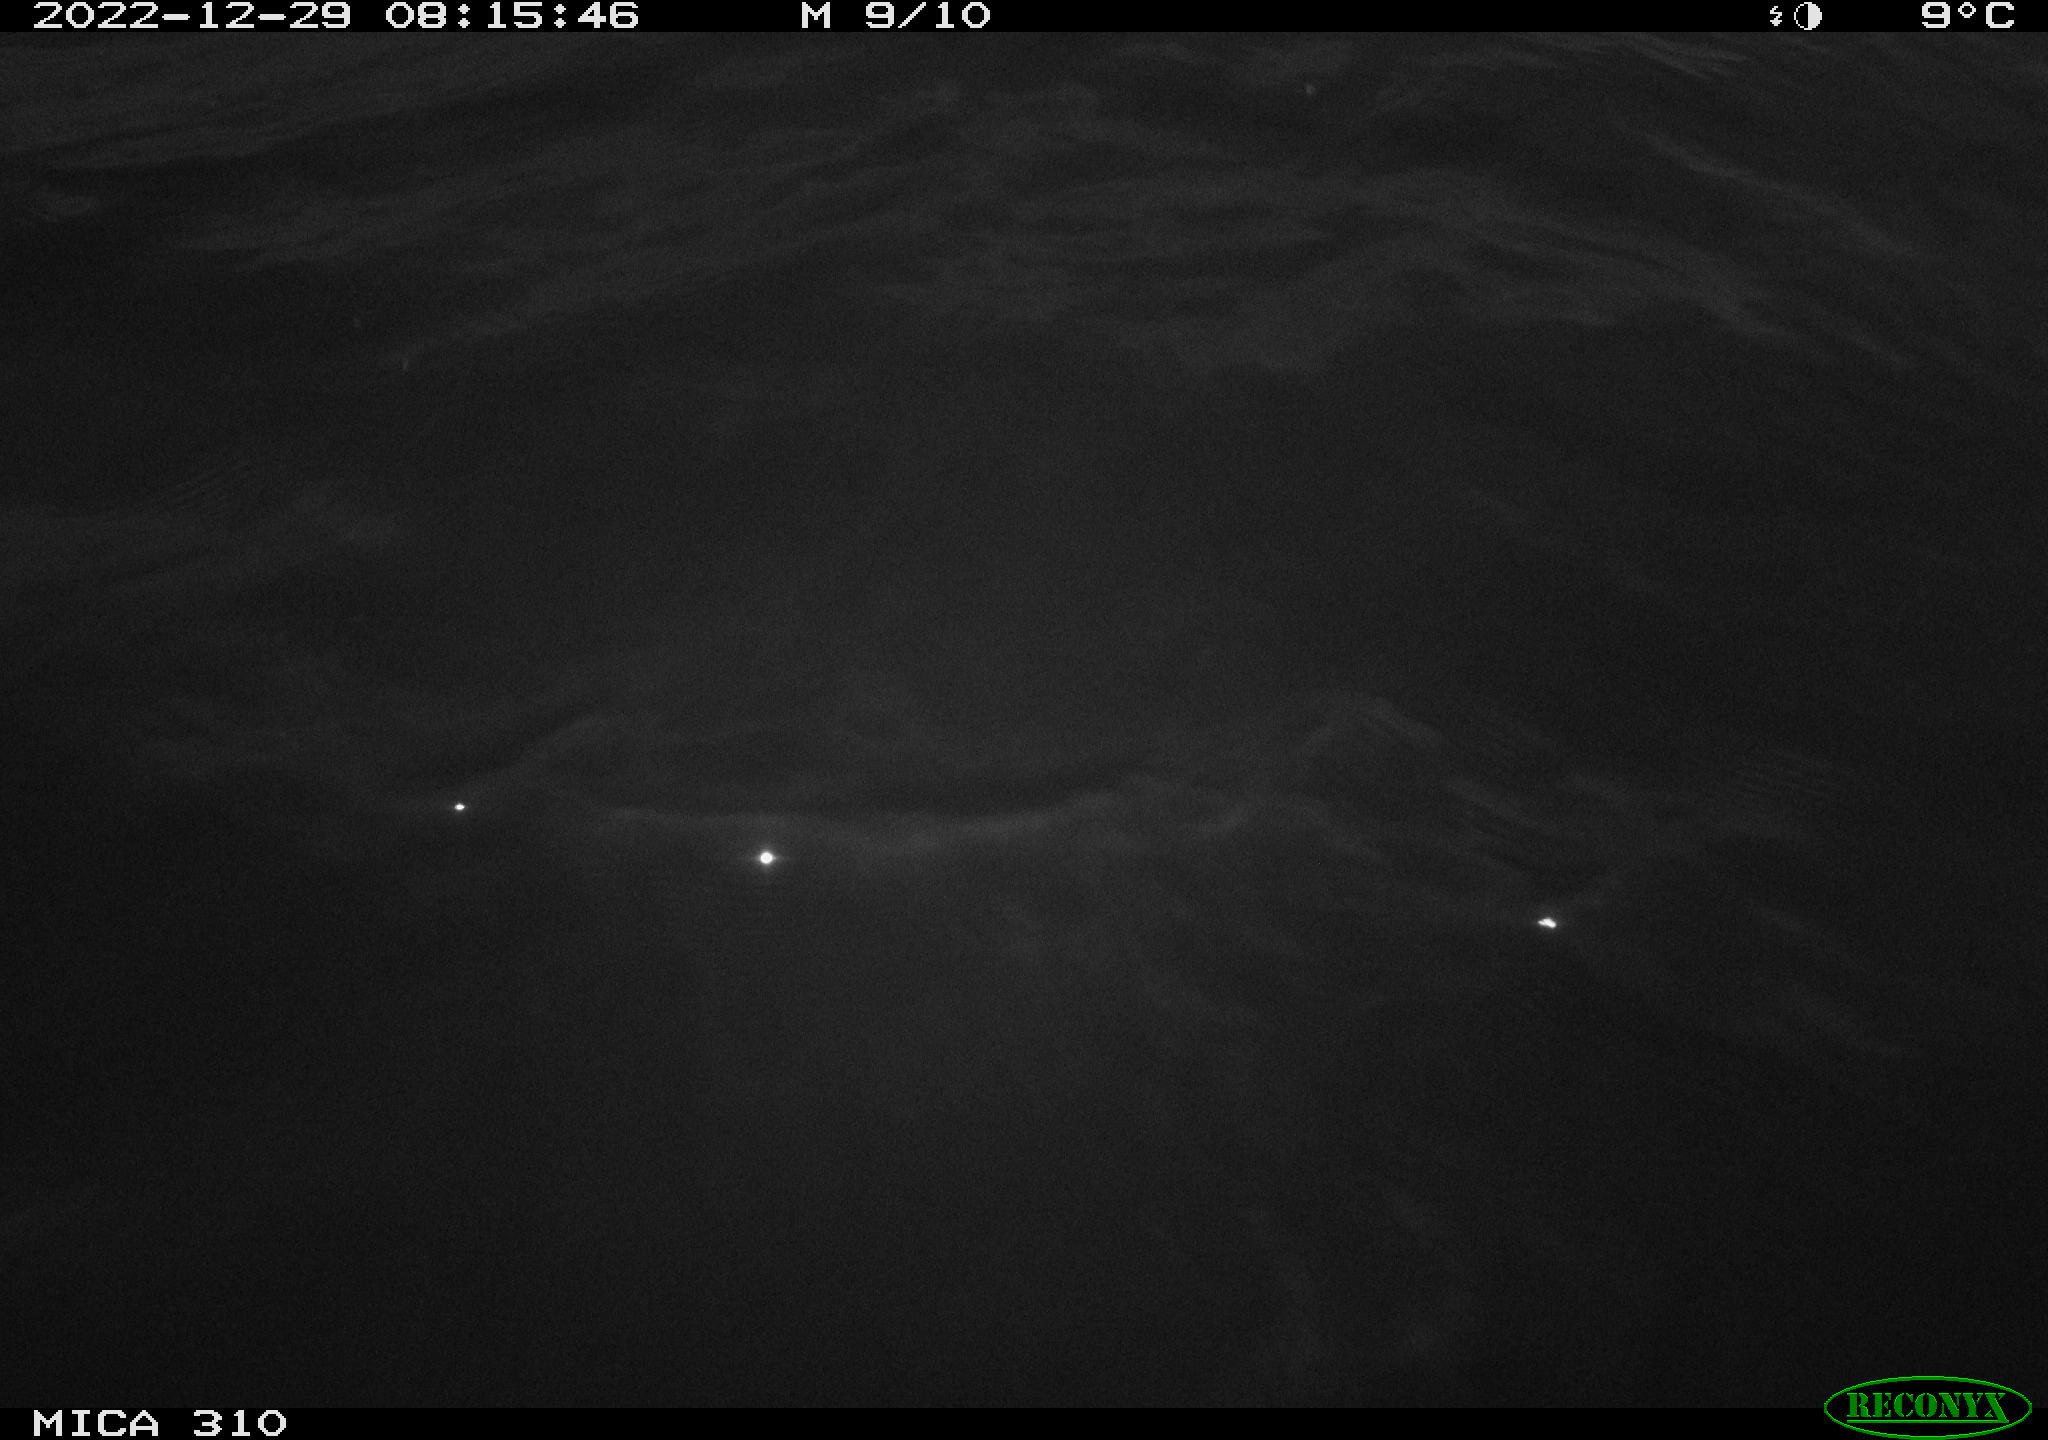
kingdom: Animalia
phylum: Chordata
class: Mammalia
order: Rodentia
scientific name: Rodentia
